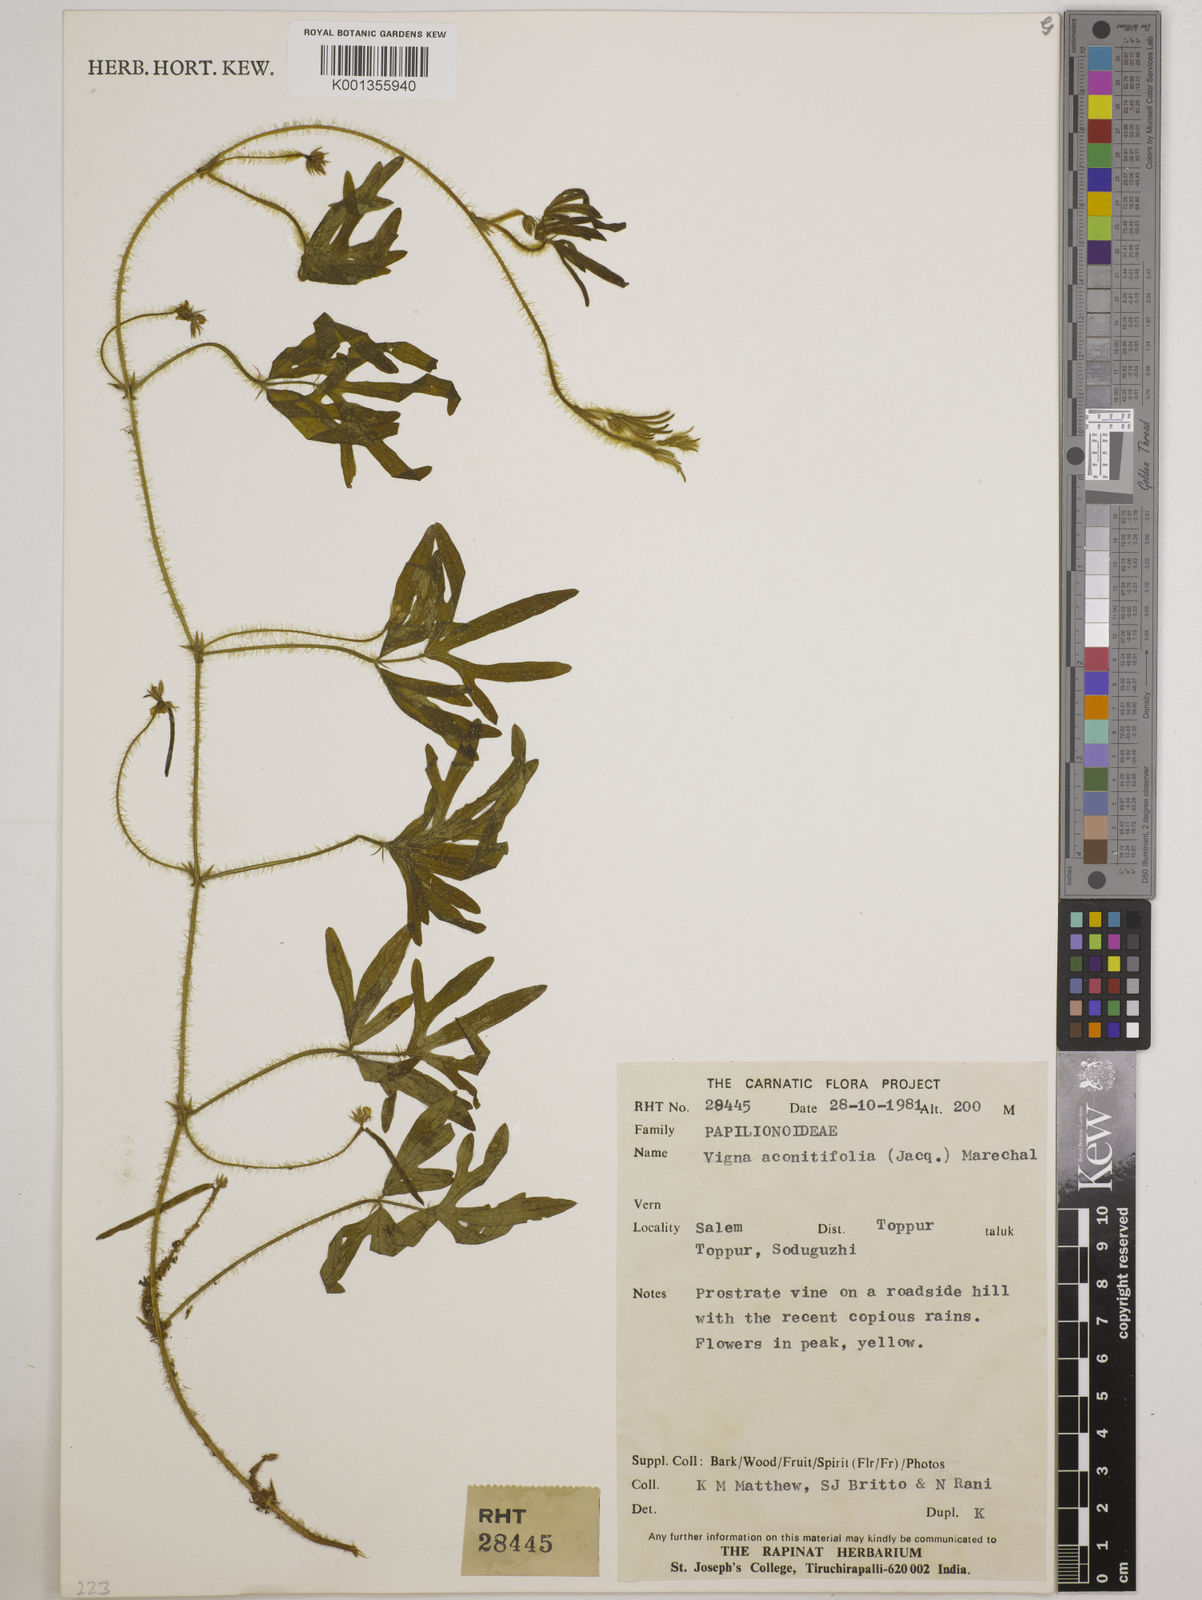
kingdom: Plantae
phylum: Tracheophyta
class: Magnoliopsida
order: Fabales
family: Fabaceae
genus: Vigna
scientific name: Vigna aconitifolia
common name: Dew bean
